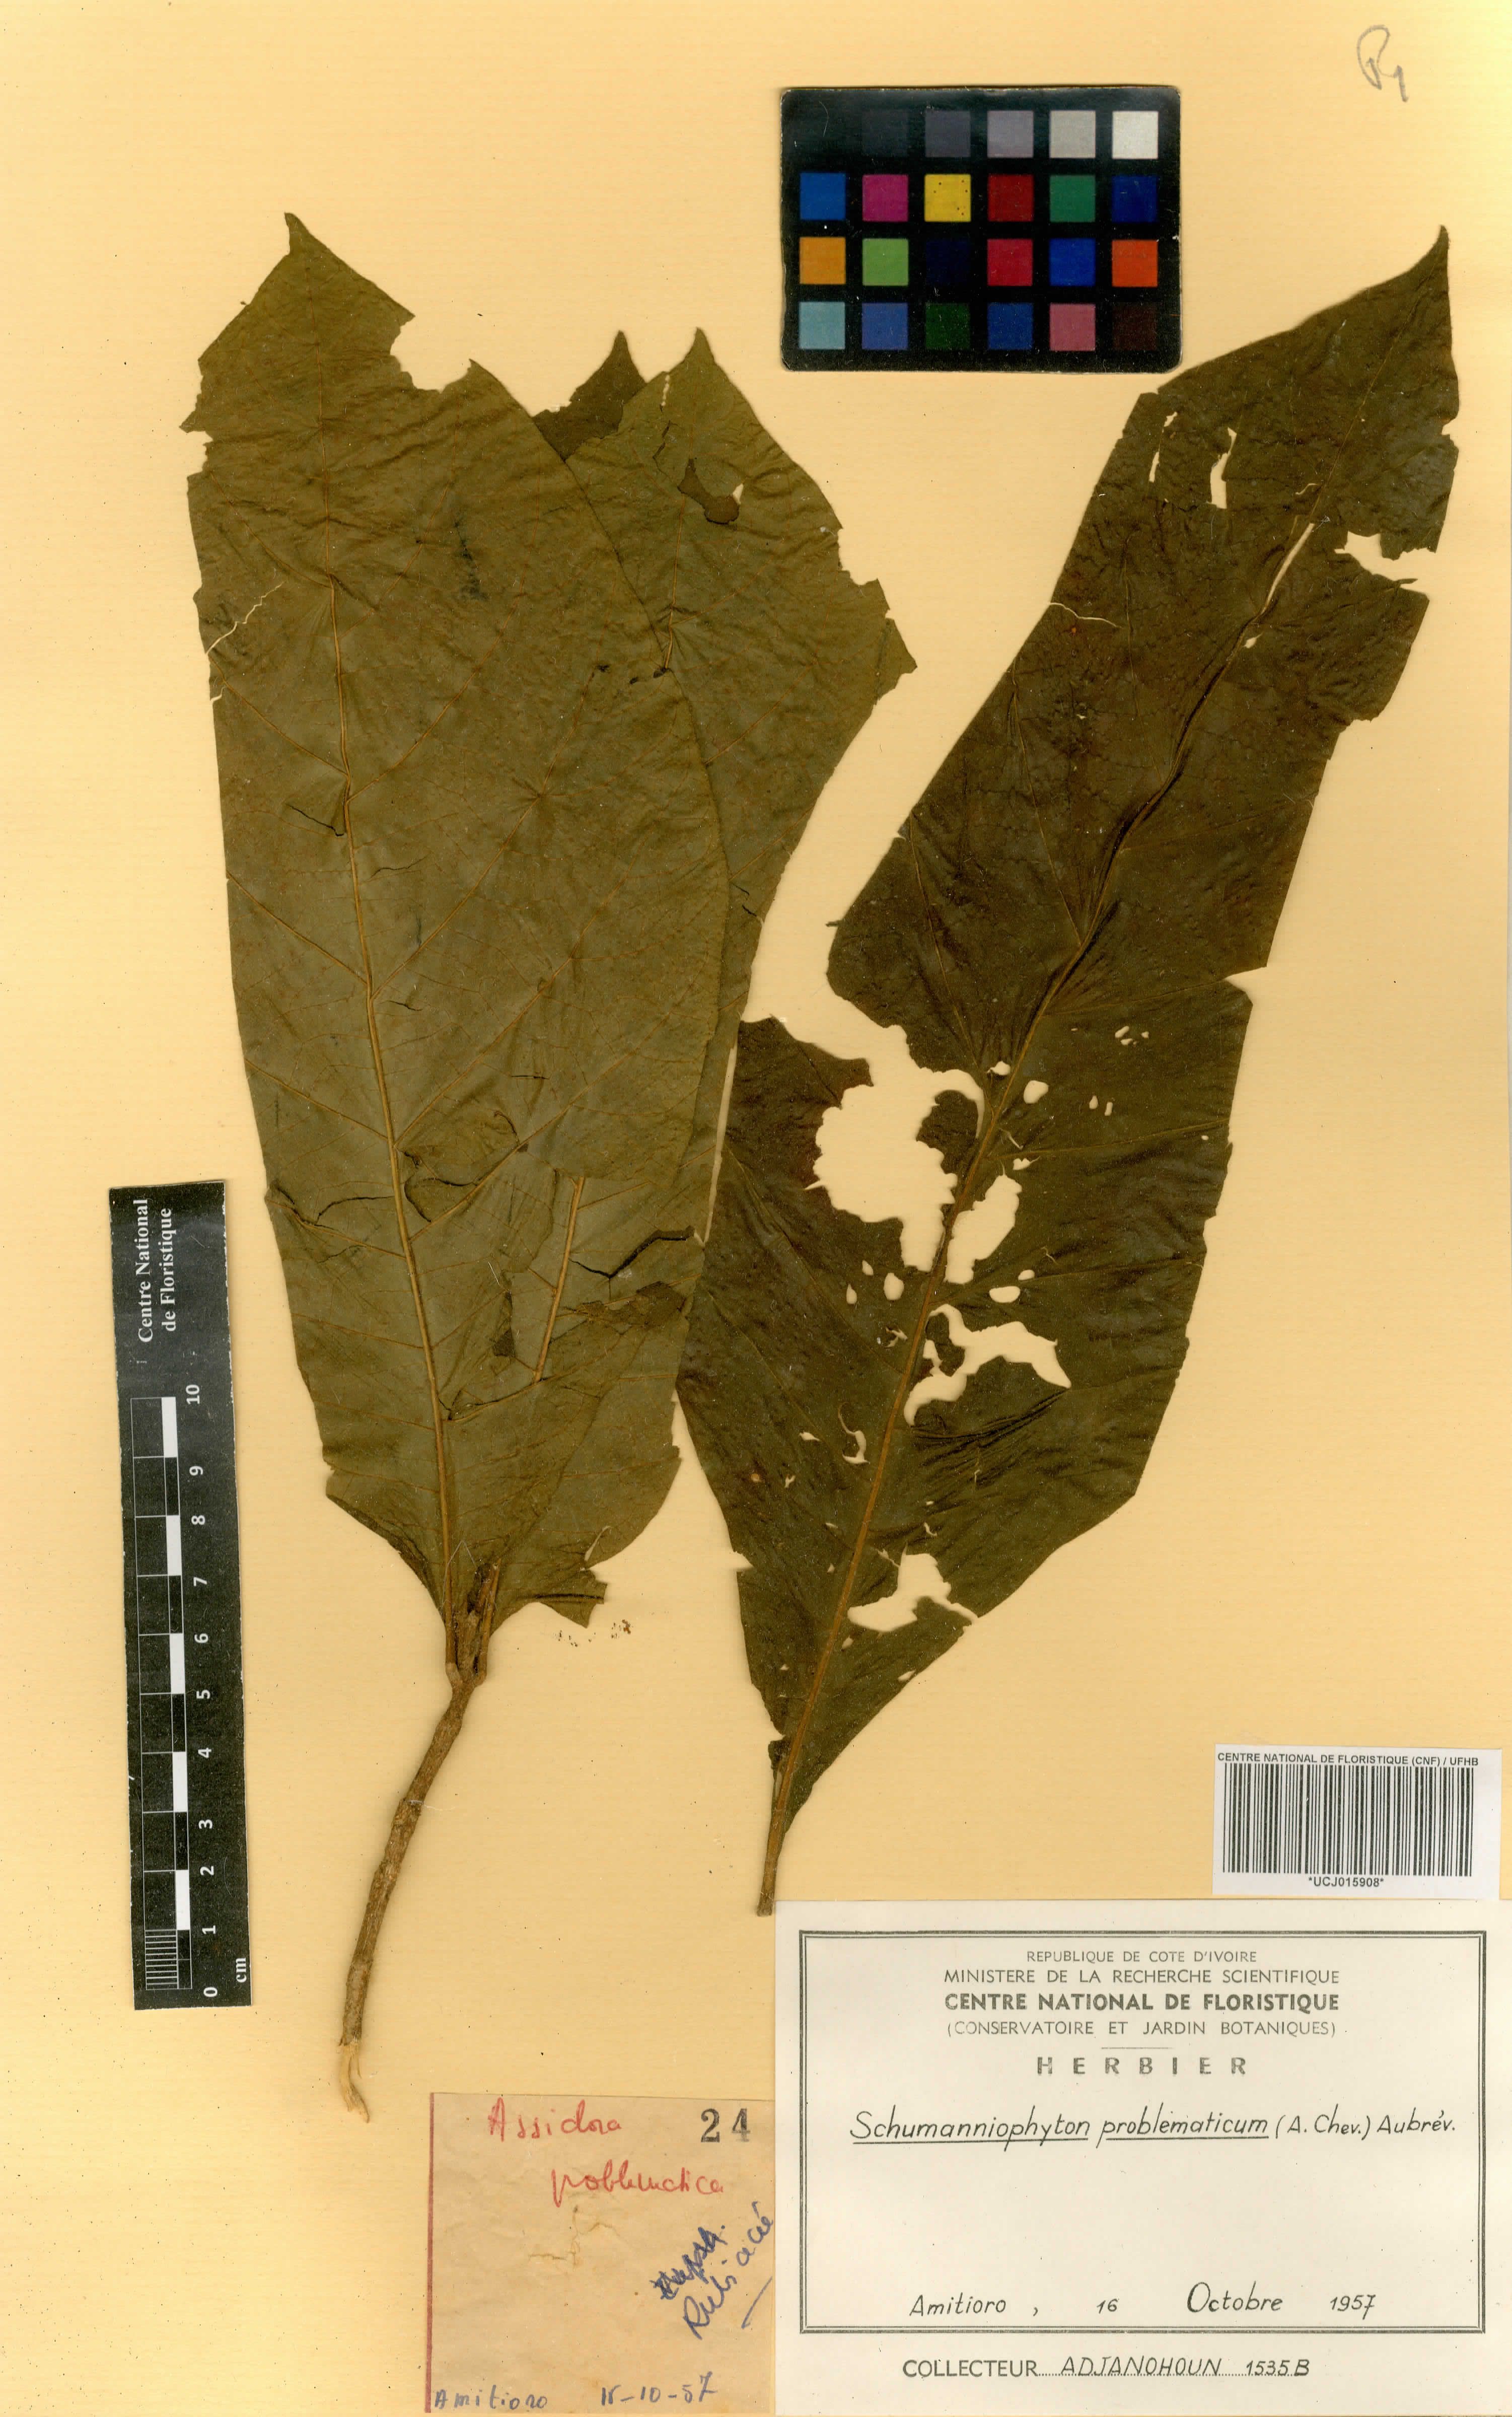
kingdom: Plantae
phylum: Tracheophyta
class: Magnoliopsida
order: Gentianales
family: Rubiaceae
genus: Schumanniophyton
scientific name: Schumanniophyton problematicum
